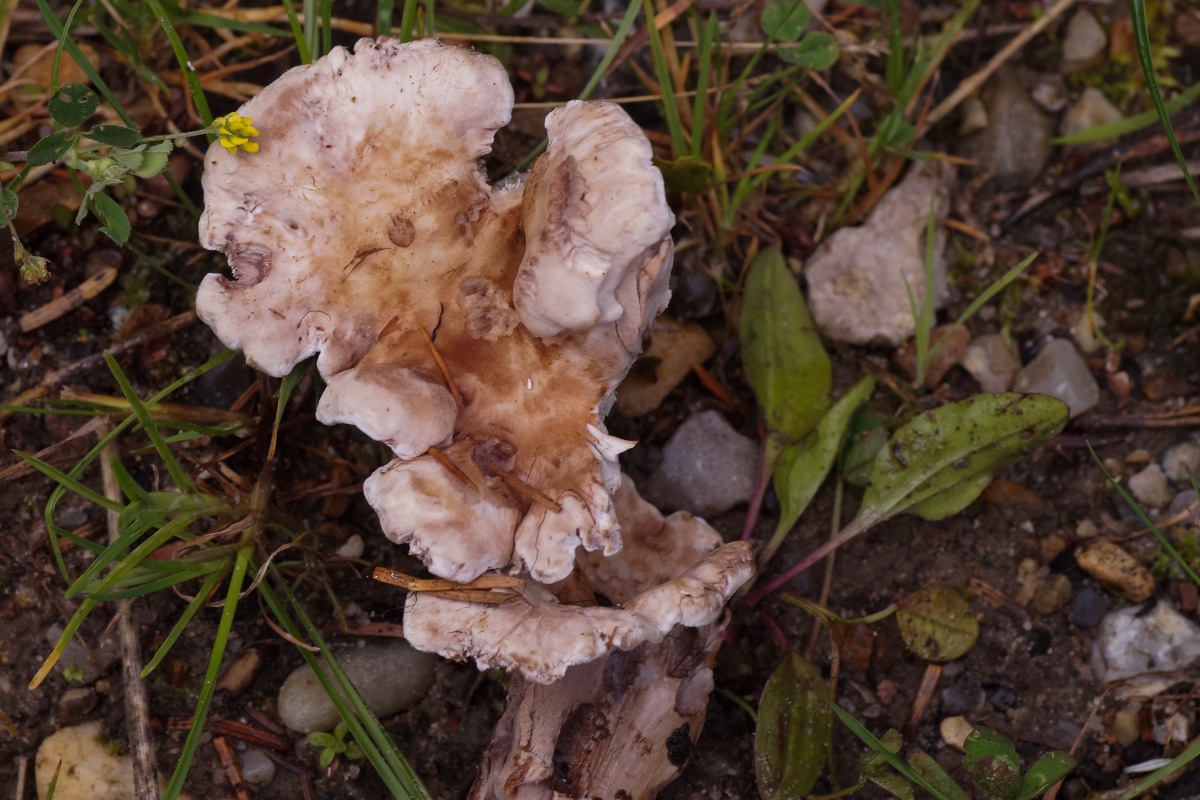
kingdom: Fungi
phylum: Basidiomycota
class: Agaricomycetes
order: Thelephorales
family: Thelephoraceae
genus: Phellodon
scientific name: Phellodon violascens
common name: violetbrun duftpigsvamp
